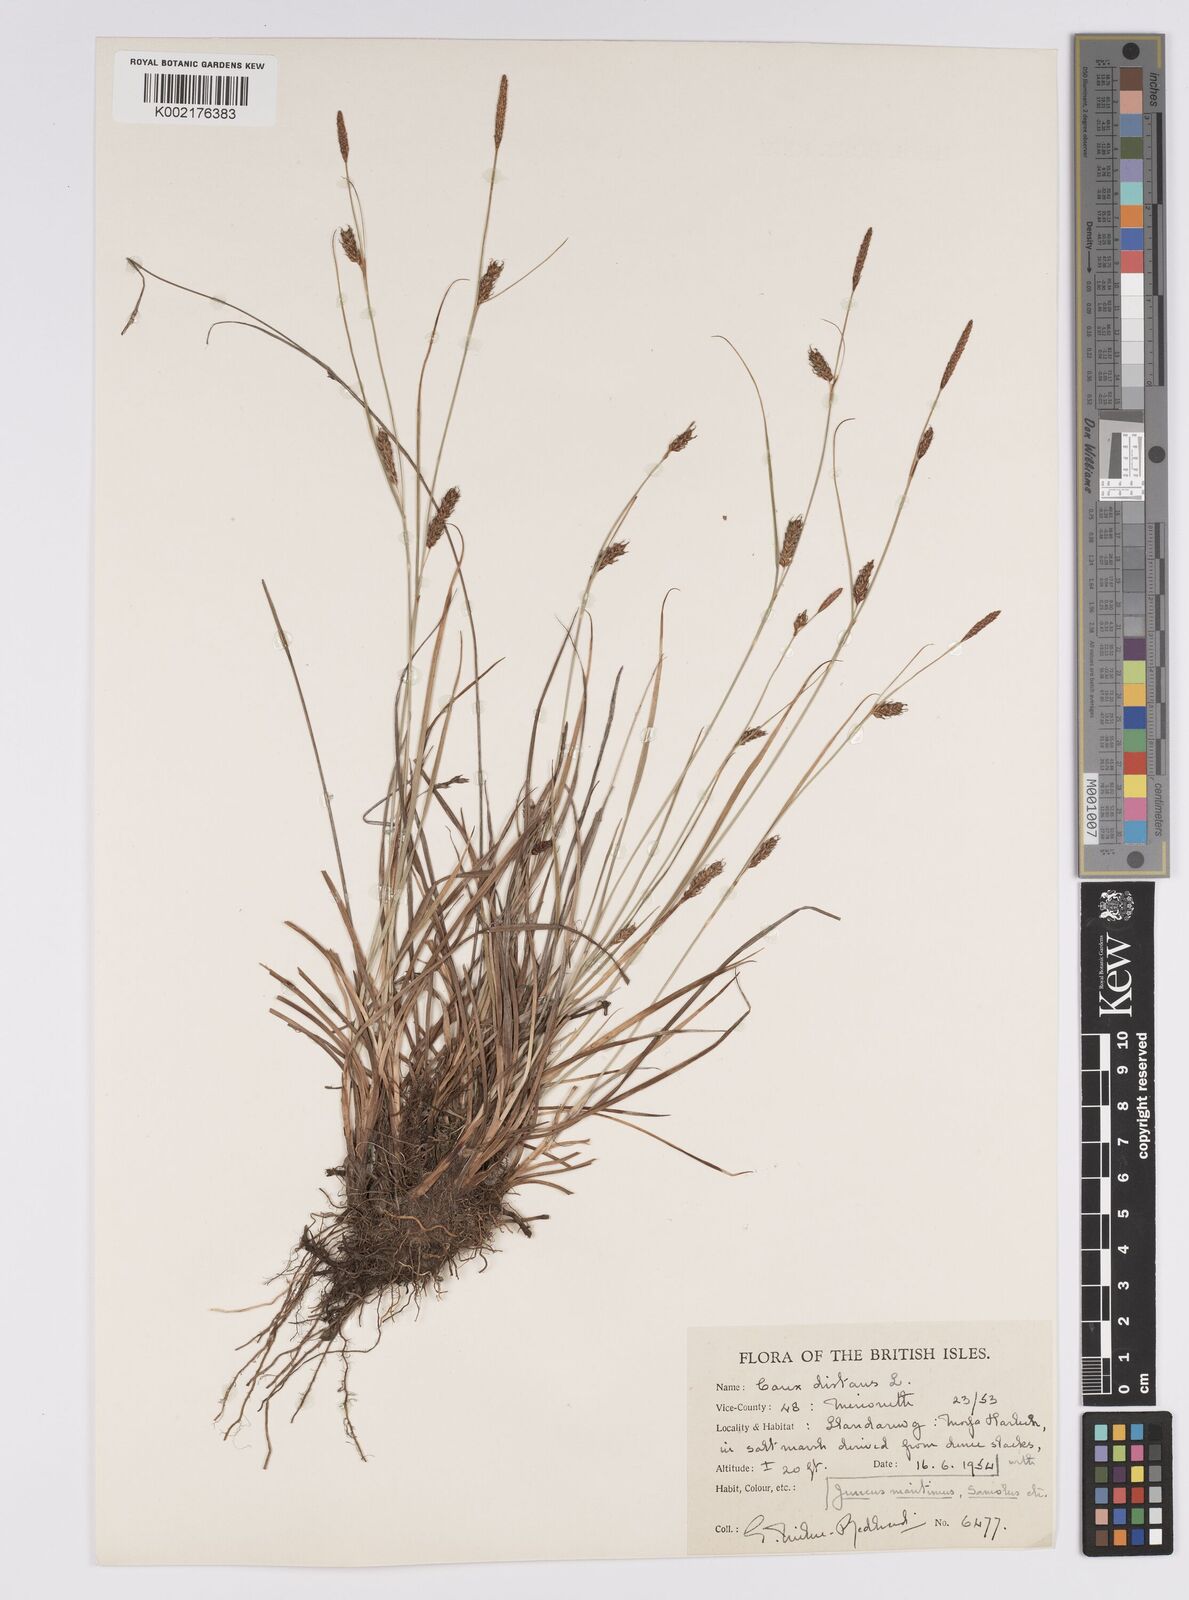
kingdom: Plantae
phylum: Tracheophyta
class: Liliopsida
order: Poales
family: Cyperaceae
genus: Carex
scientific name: Carex distans
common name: Distant sedge
